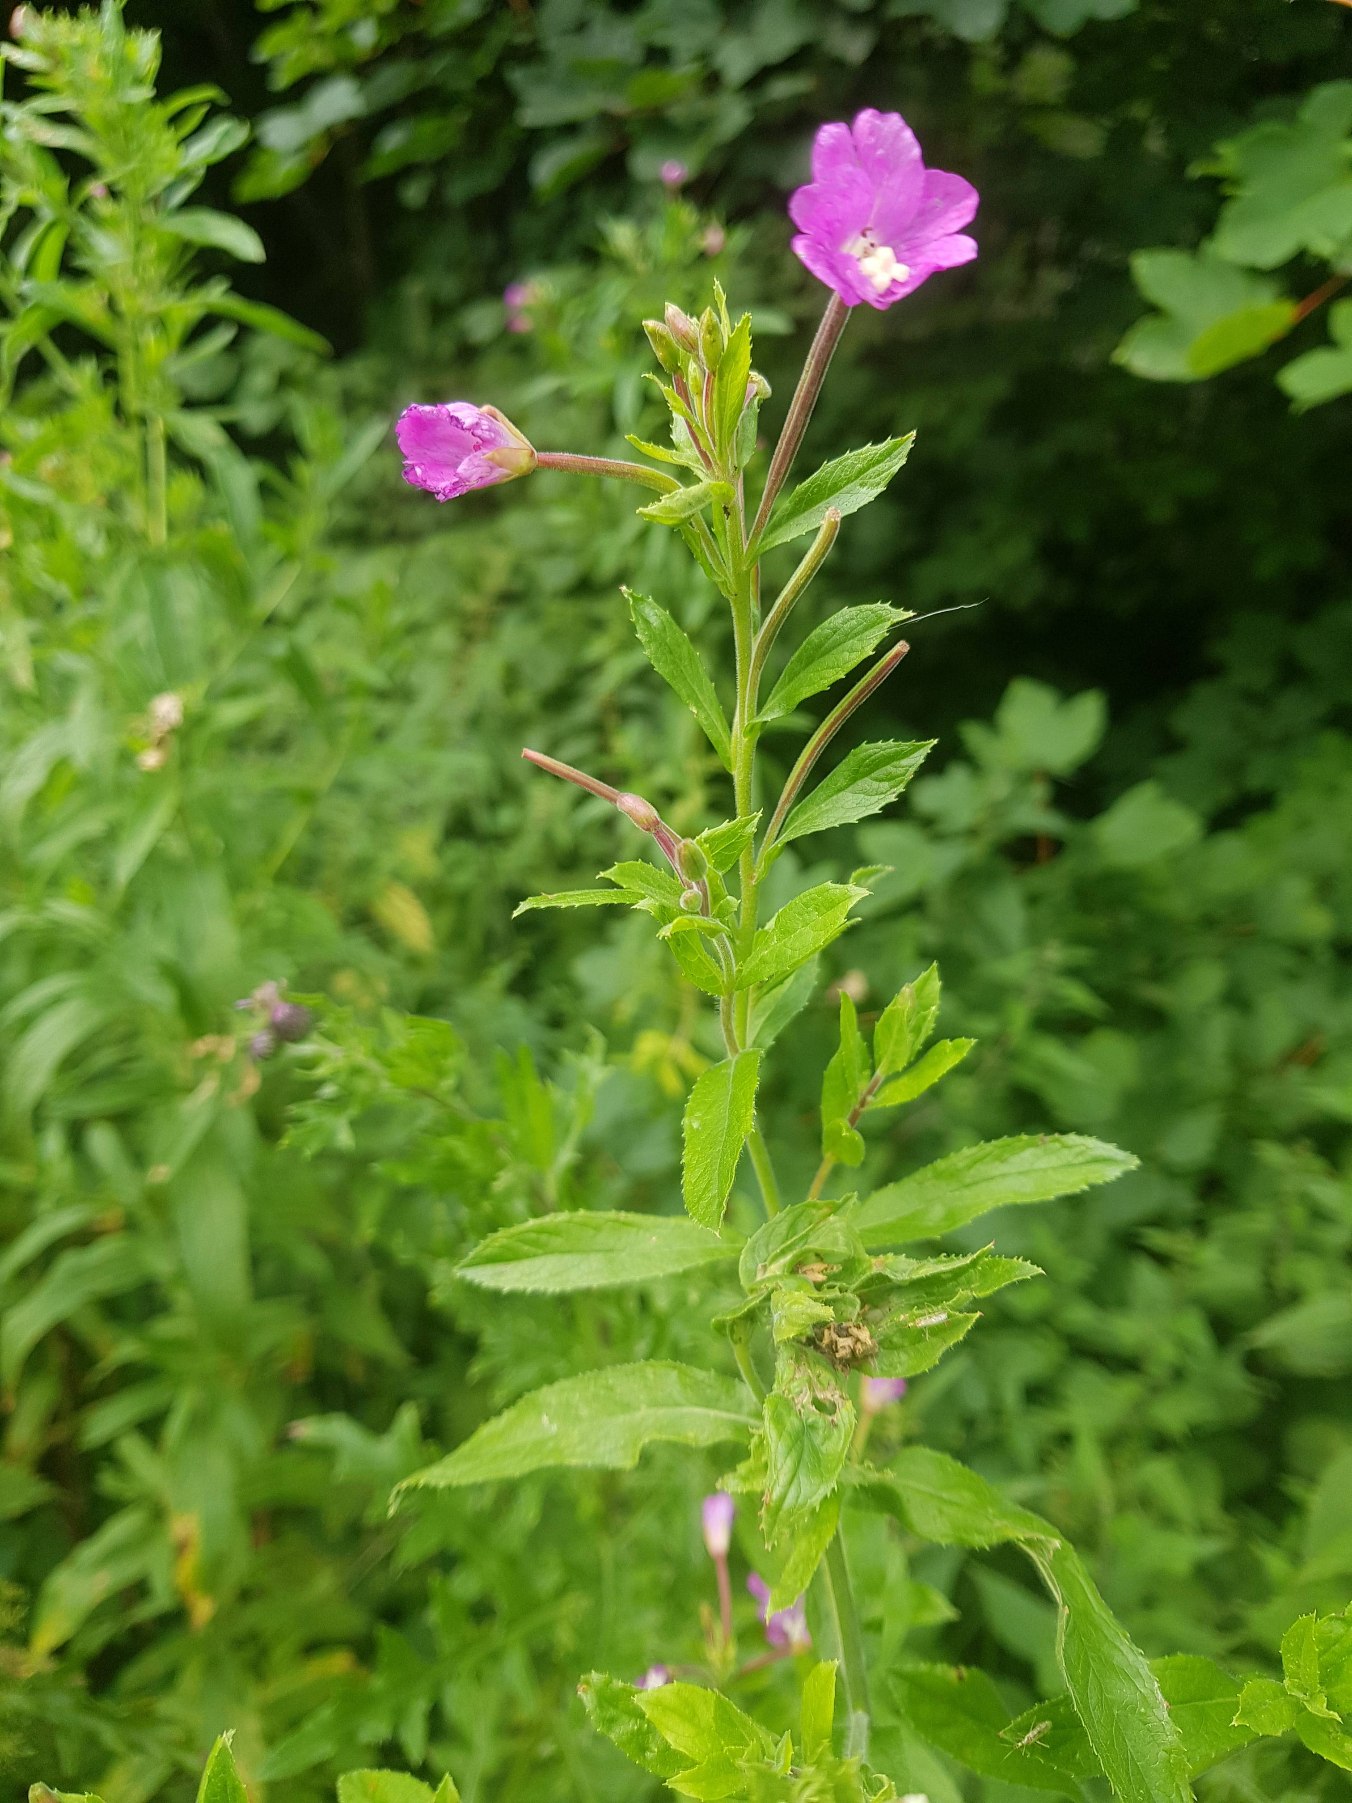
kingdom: Plantae
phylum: Tracheophyta
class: Magnoliopsida
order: Myrtales
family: Onagraceae
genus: Epilobium
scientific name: Epilobium hirsutum
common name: Lådden dueurt
